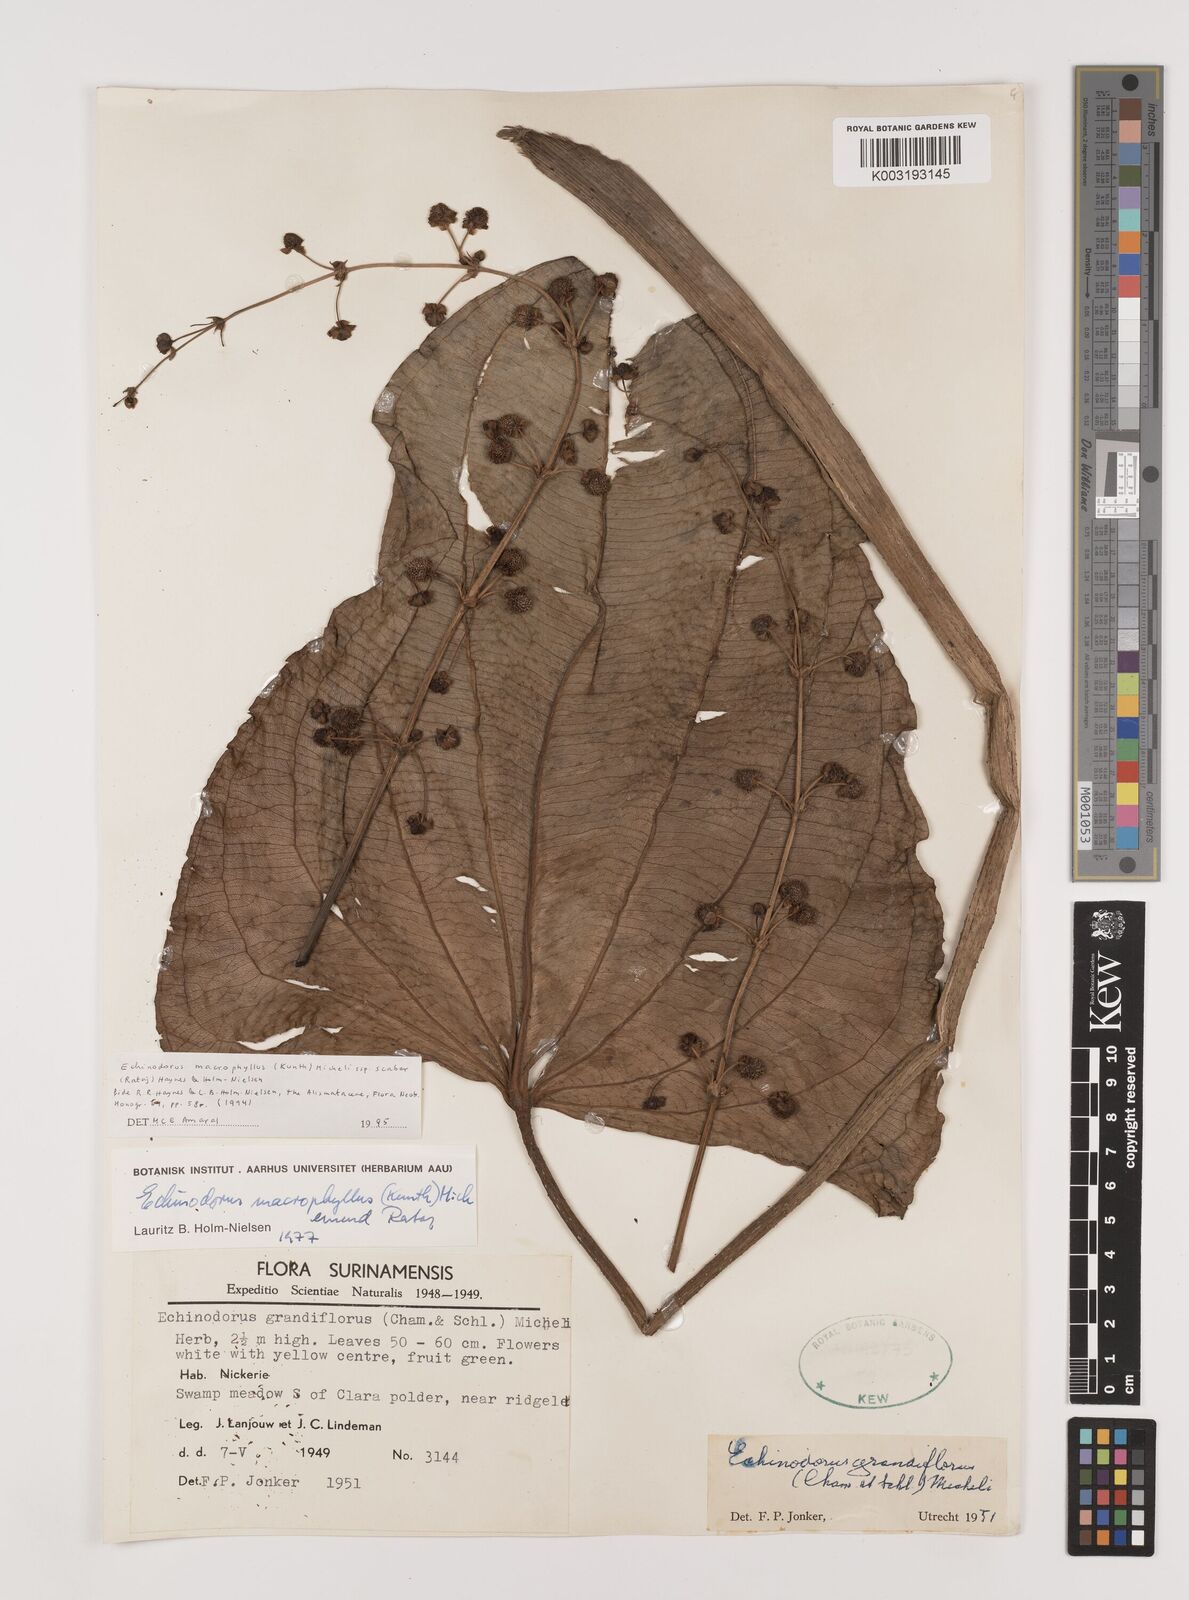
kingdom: Plantae
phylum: Tracheophyta
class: Liliopsida
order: Alismatales
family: Alismataceae
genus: Aquarius
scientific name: Aquarius macrophyllus
